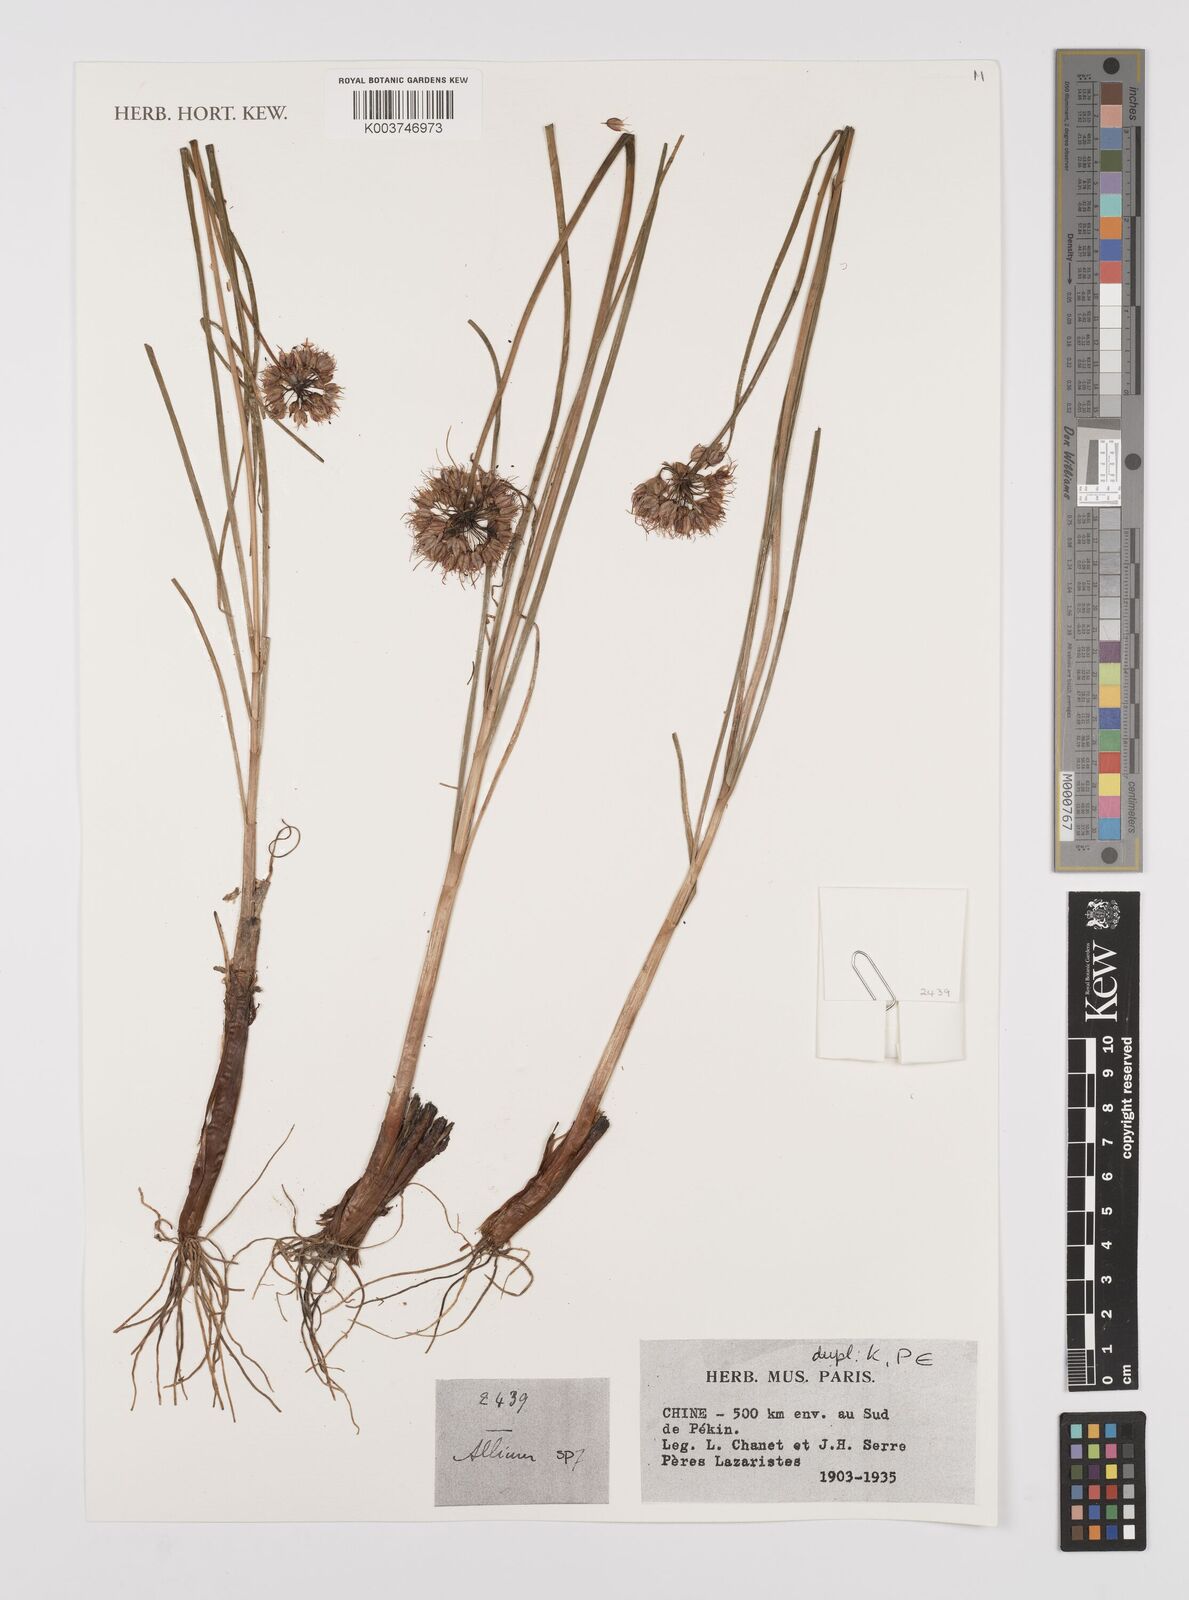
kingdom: Plantae
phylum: Tracheophyta
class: Liliopsida
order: Asparagales
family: Amaryllidaceae
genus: Allium
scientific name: Allium
